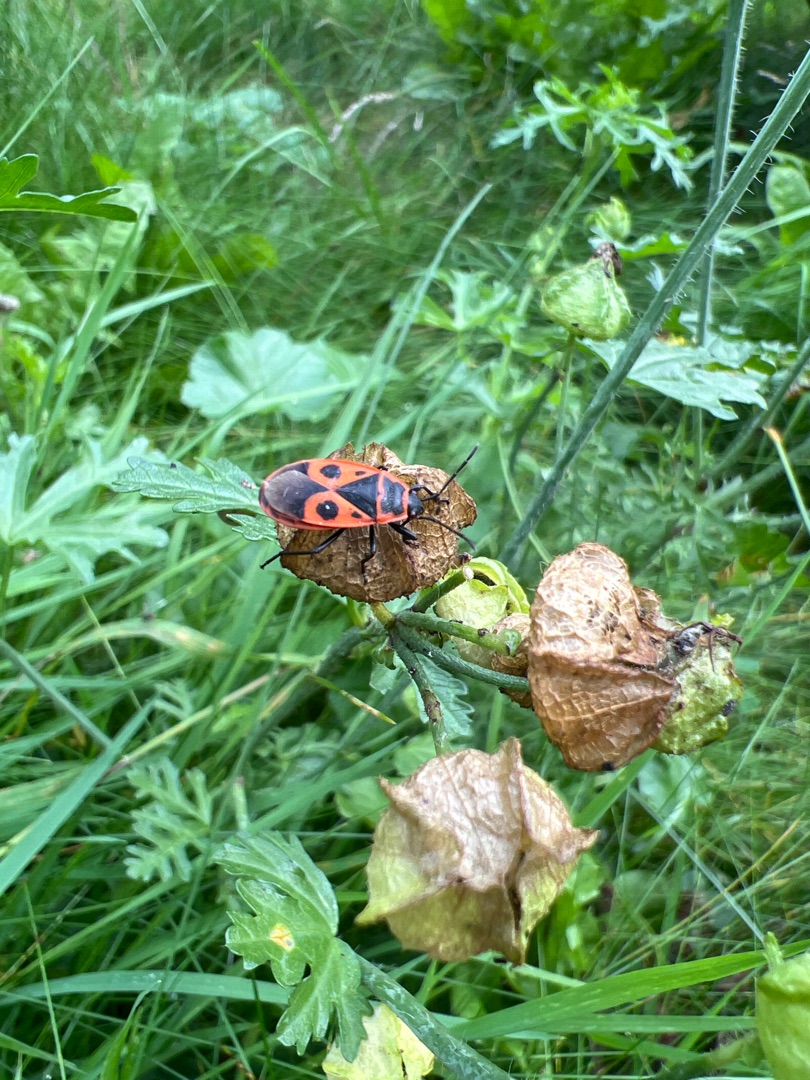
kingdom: Animalia
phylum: Arthropoda
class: Insecta
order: Hemiptera
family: Pyrrhocoridae
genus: Pyrrhocoris
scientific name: Pyrrhocoris apterus
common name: Ildtæge
